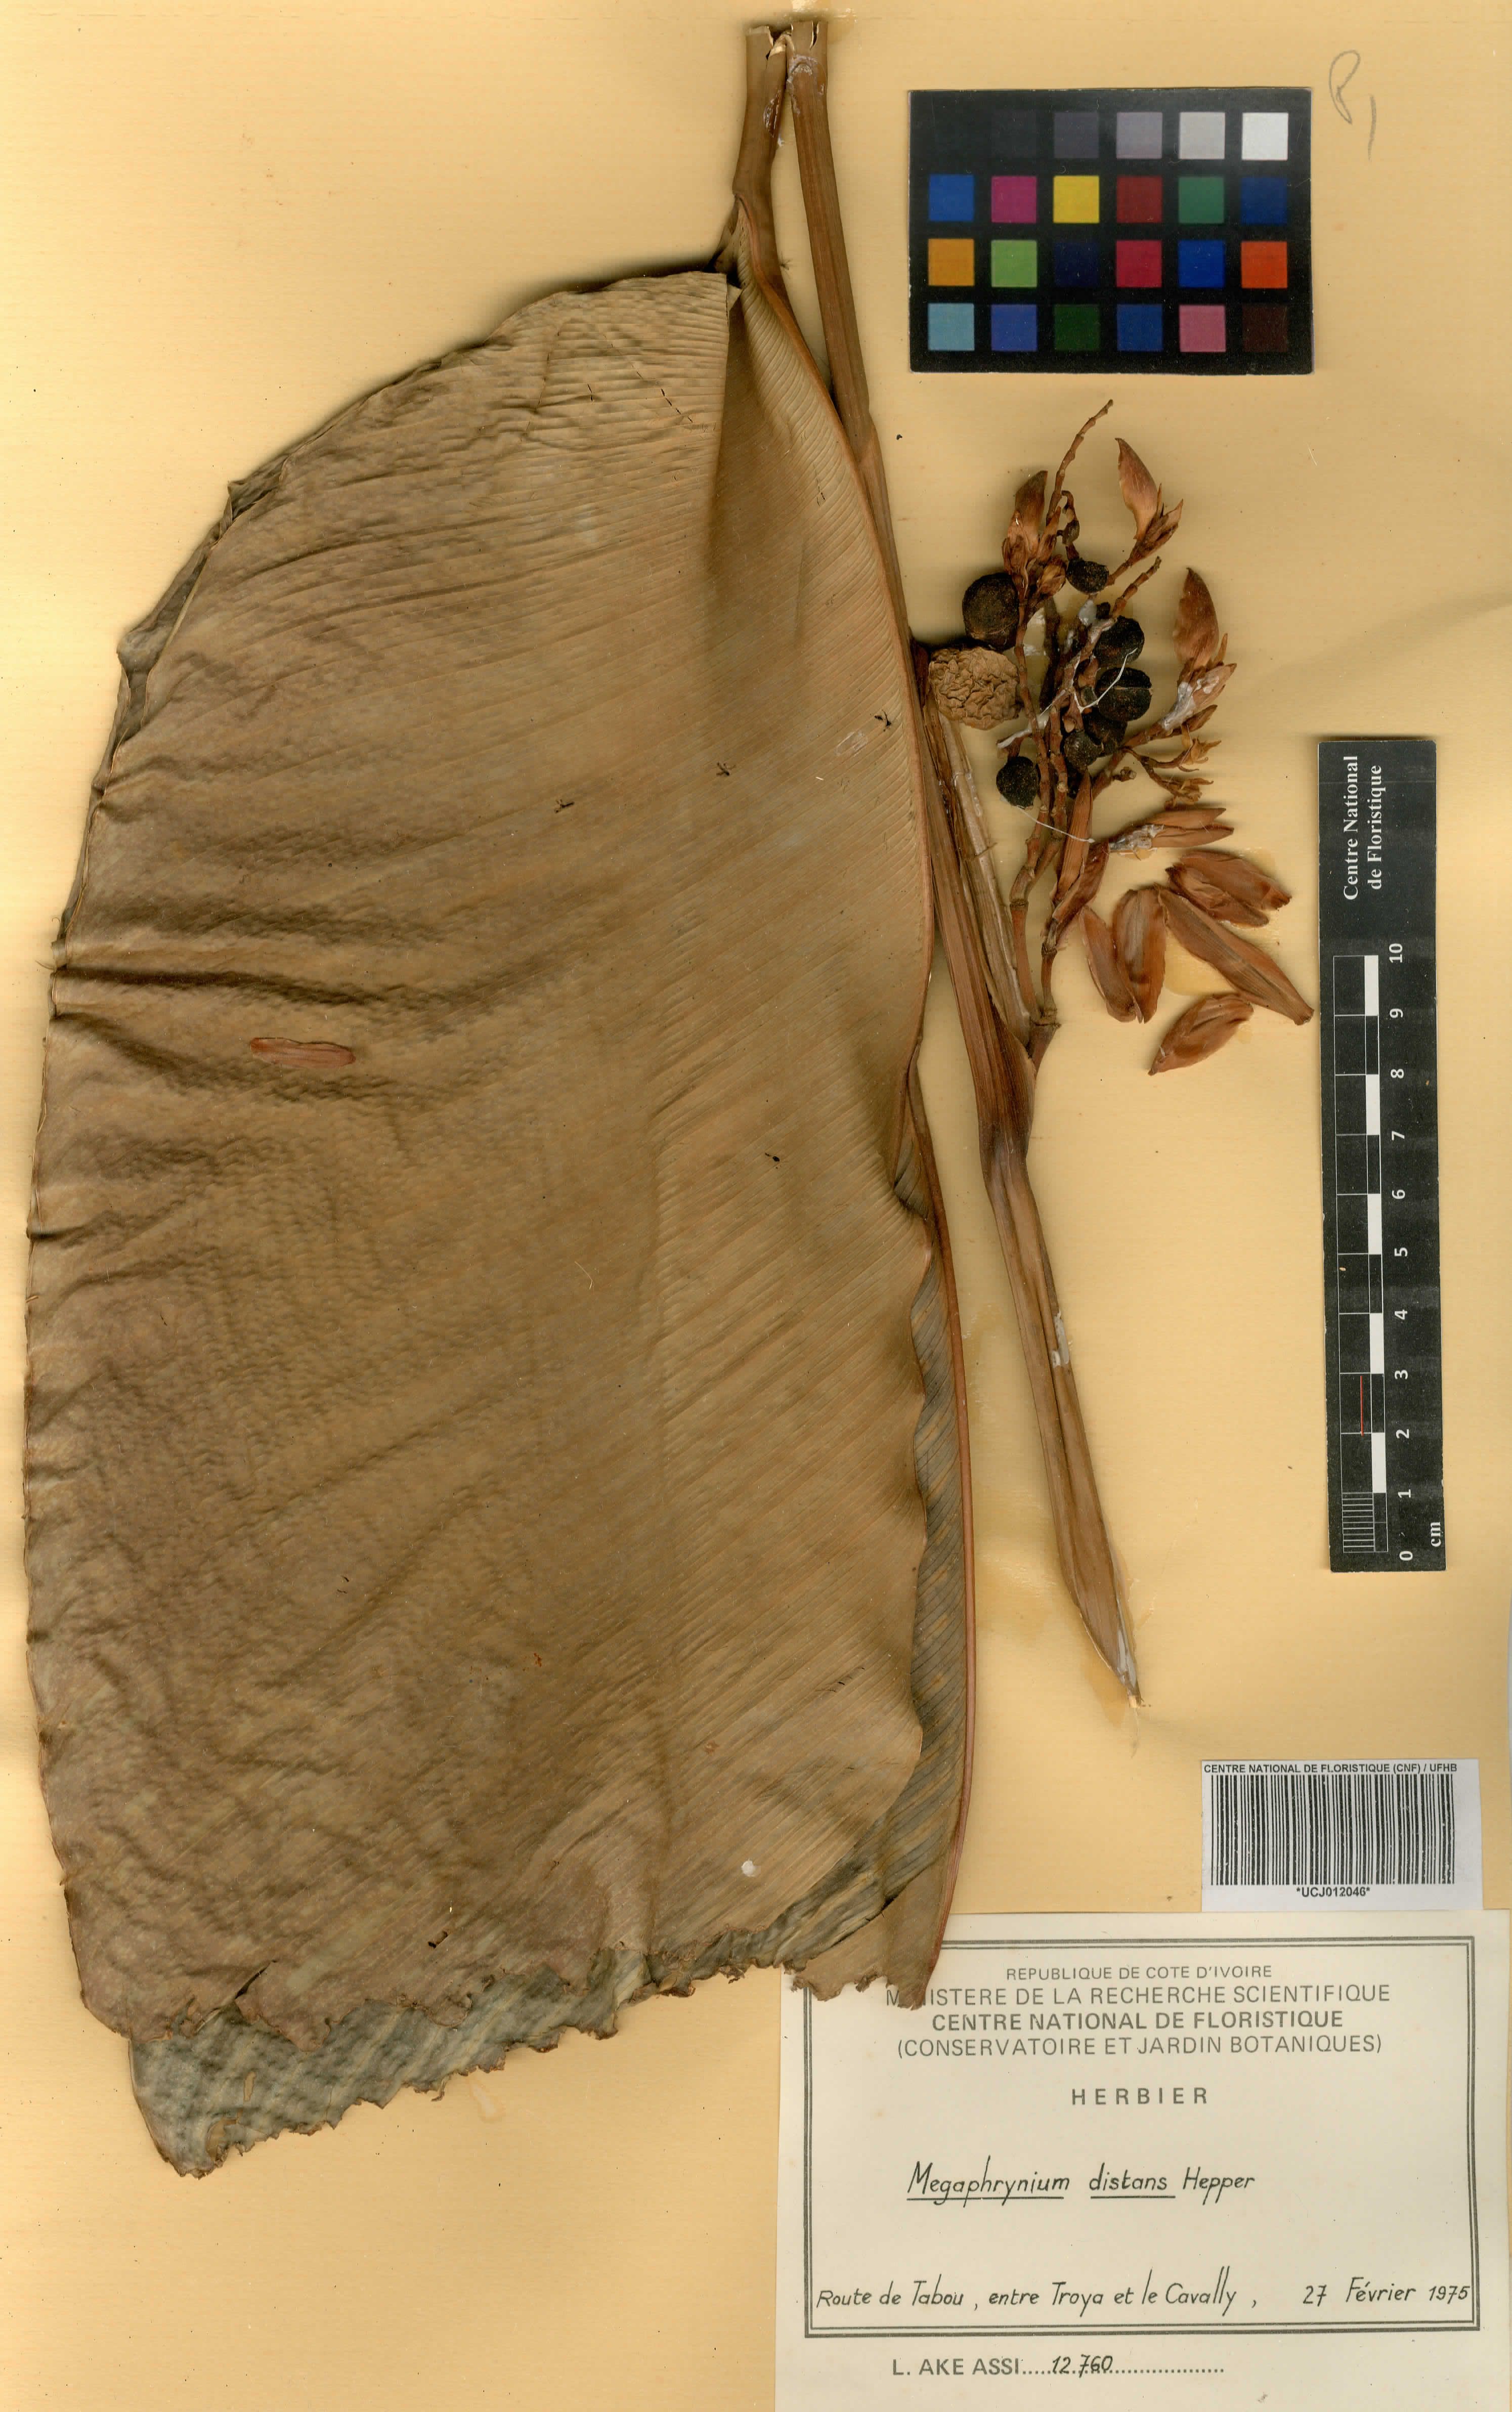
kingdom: Plantae
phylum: Tracheophyta
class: Liliopsida
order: Zingiberales
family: Marantaceae
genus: Megaphrynium
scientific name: Megaphrynium distans
